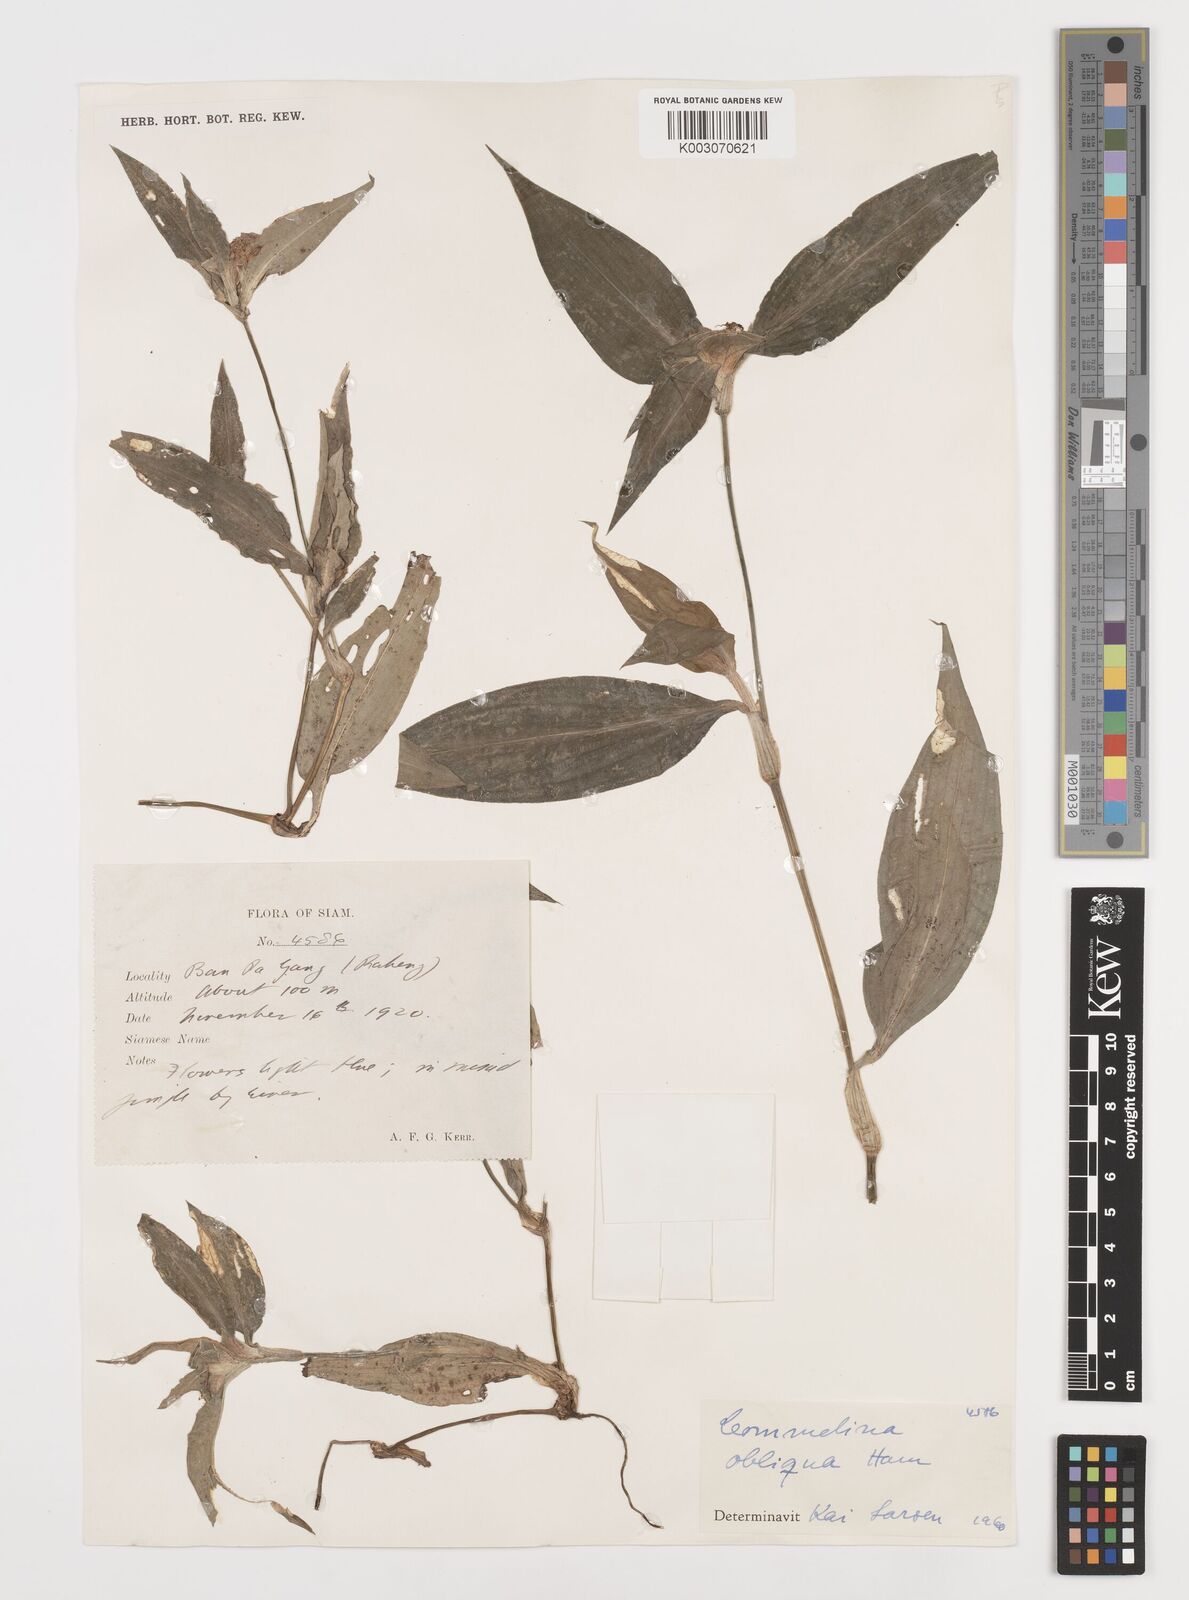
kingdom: Plantae
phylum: Tracheophyta
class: Liliopsida
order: Commelinales
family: Commelinaceae
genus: Commelina
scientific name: Commelina paludosa
